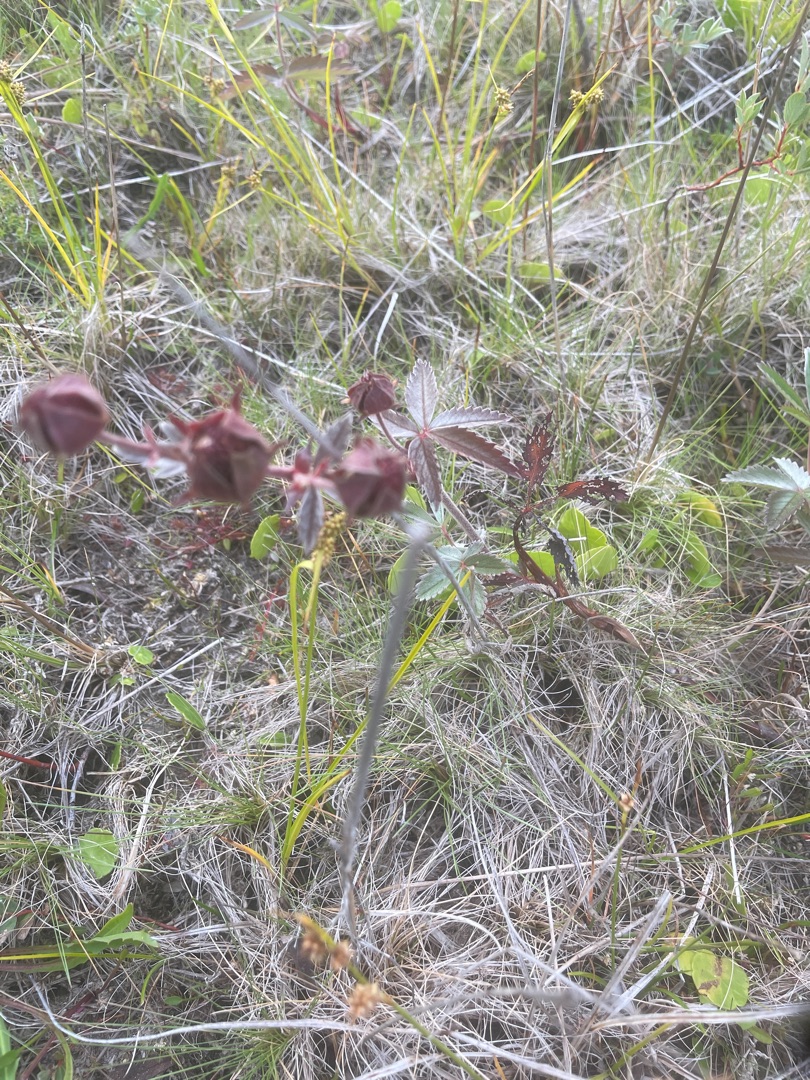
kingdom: Plantae
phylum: Tracheophyta
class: Magnoliopsida
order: Rosales
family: Rosaceae
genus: Comarum
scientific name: Comarum palustre
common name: Kragefod
